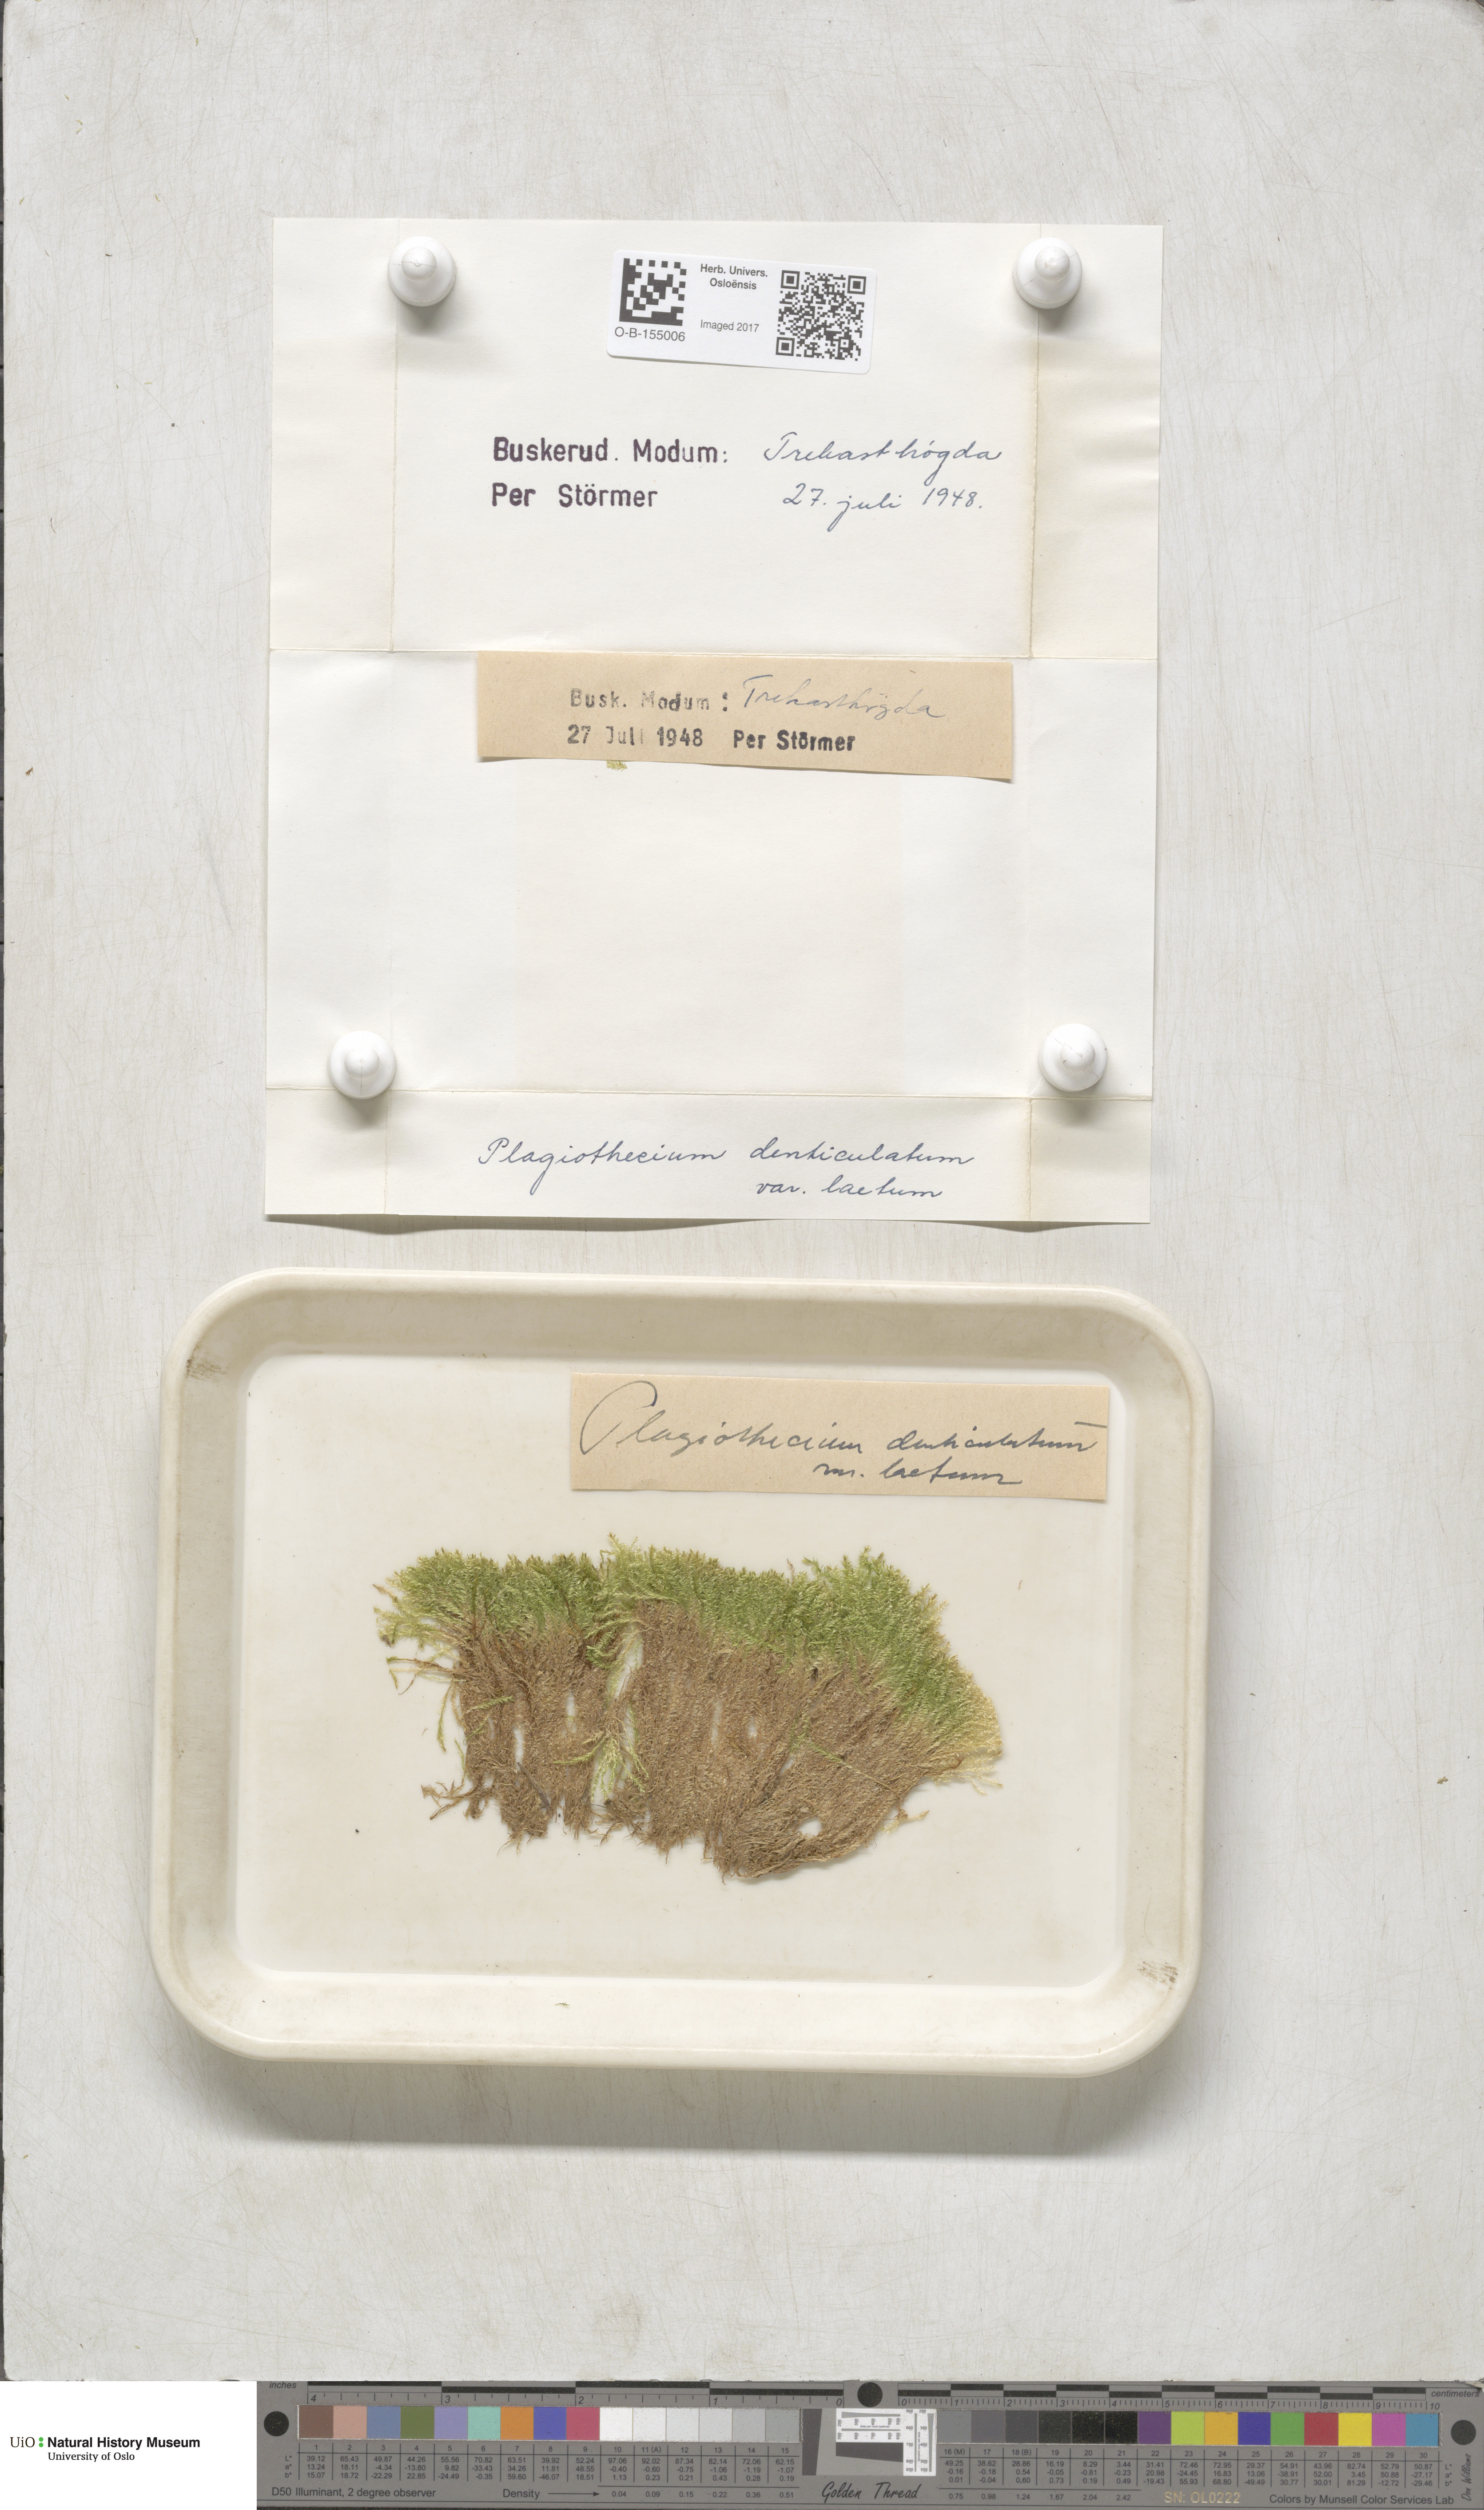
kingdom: Plantae
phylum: Bryophyta
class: Bryopsida
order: Hypnales
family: Plagiotheciaceae
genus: Plagiothecium
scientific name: Plagiothecium denticulatum
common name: Dented silk moss
